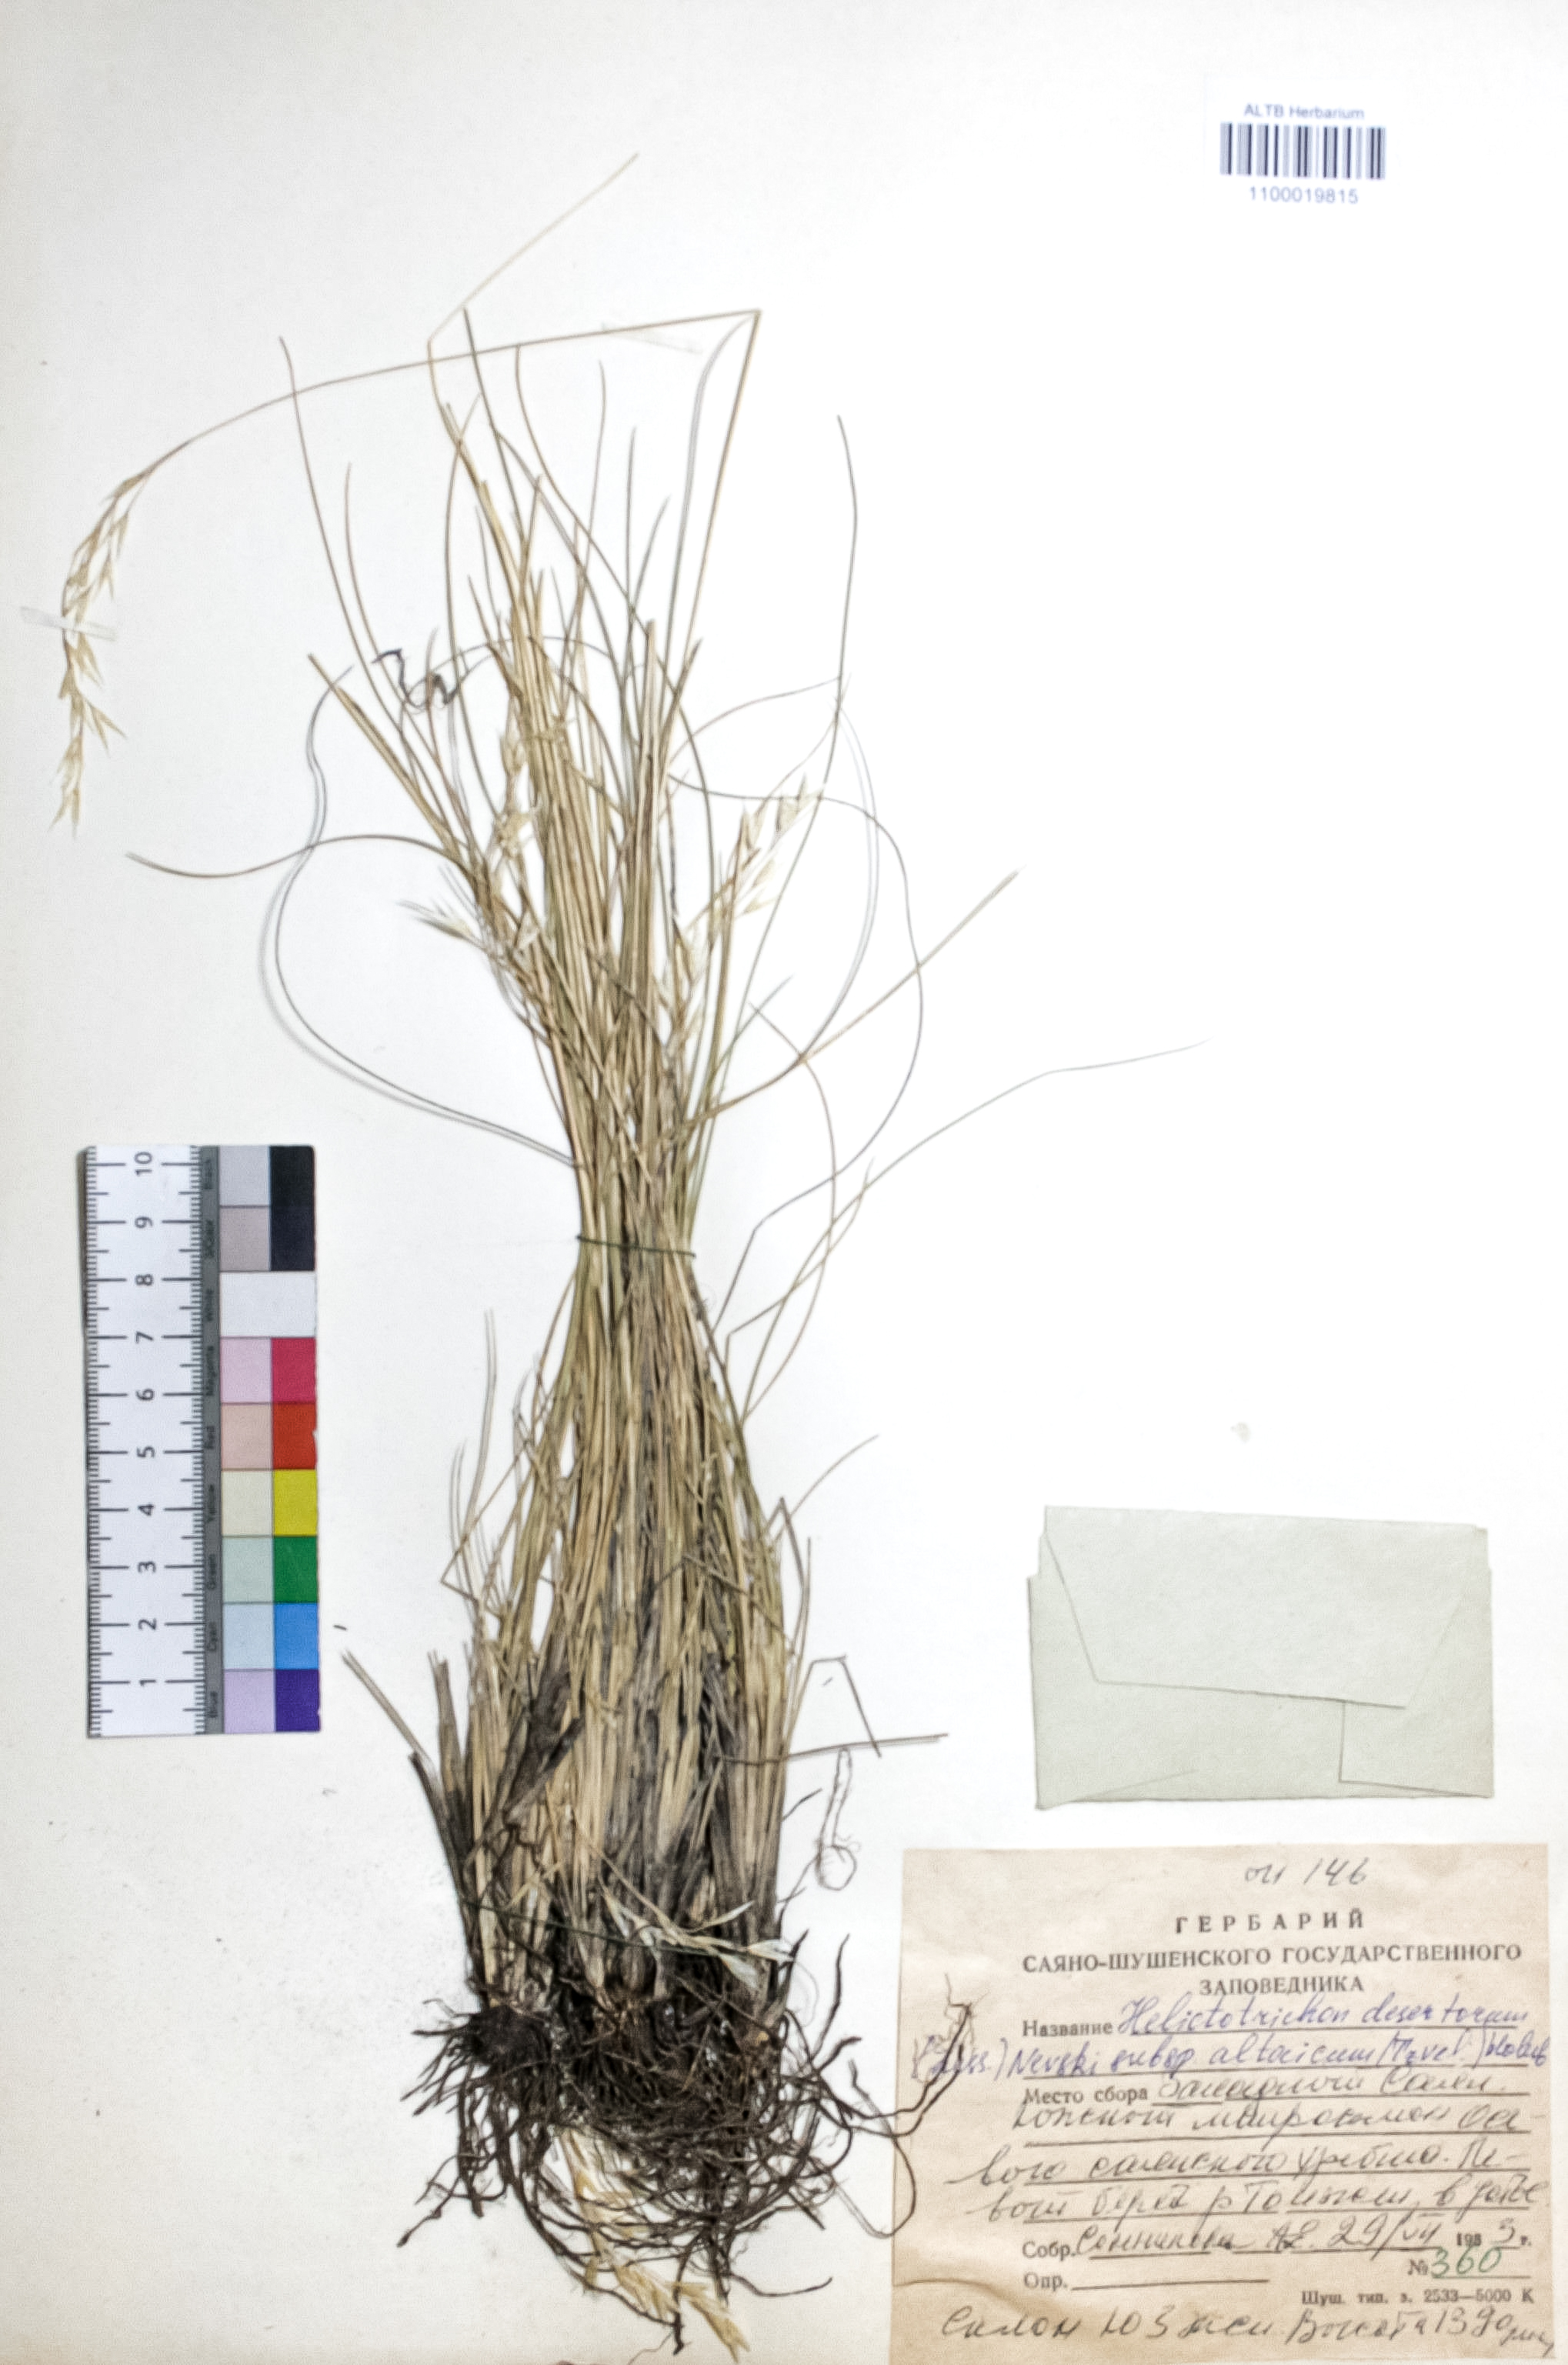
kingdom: Plantae
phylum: Tracheophyta
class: Liliopsida
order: Poales
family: Poaceae
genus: Helictotrichon
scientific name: Helictotrichon desertorum
